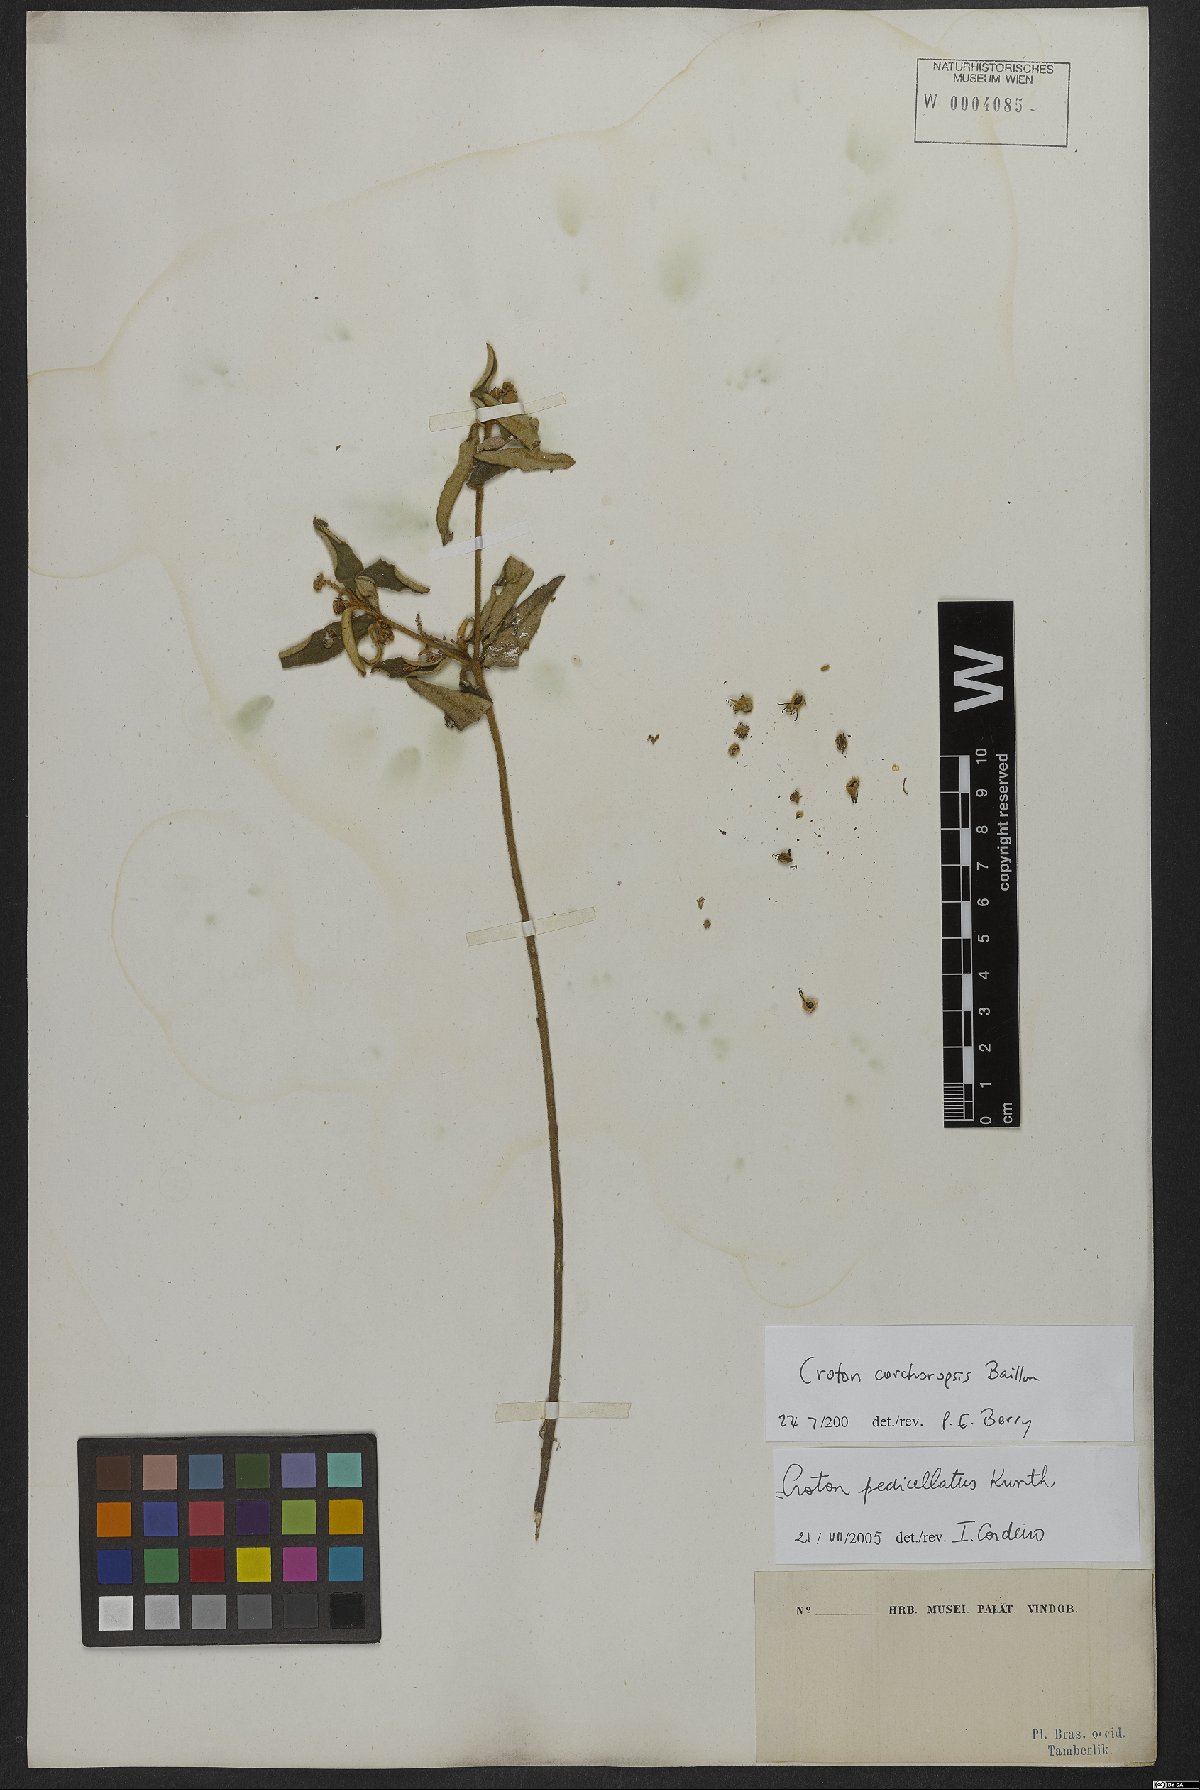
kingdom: Plantae
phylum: Tracheophyta
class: Magnoliopsida
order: Malpighiales
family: Euphorbiaceae
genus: Croton
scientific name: Croton corchoropsis
